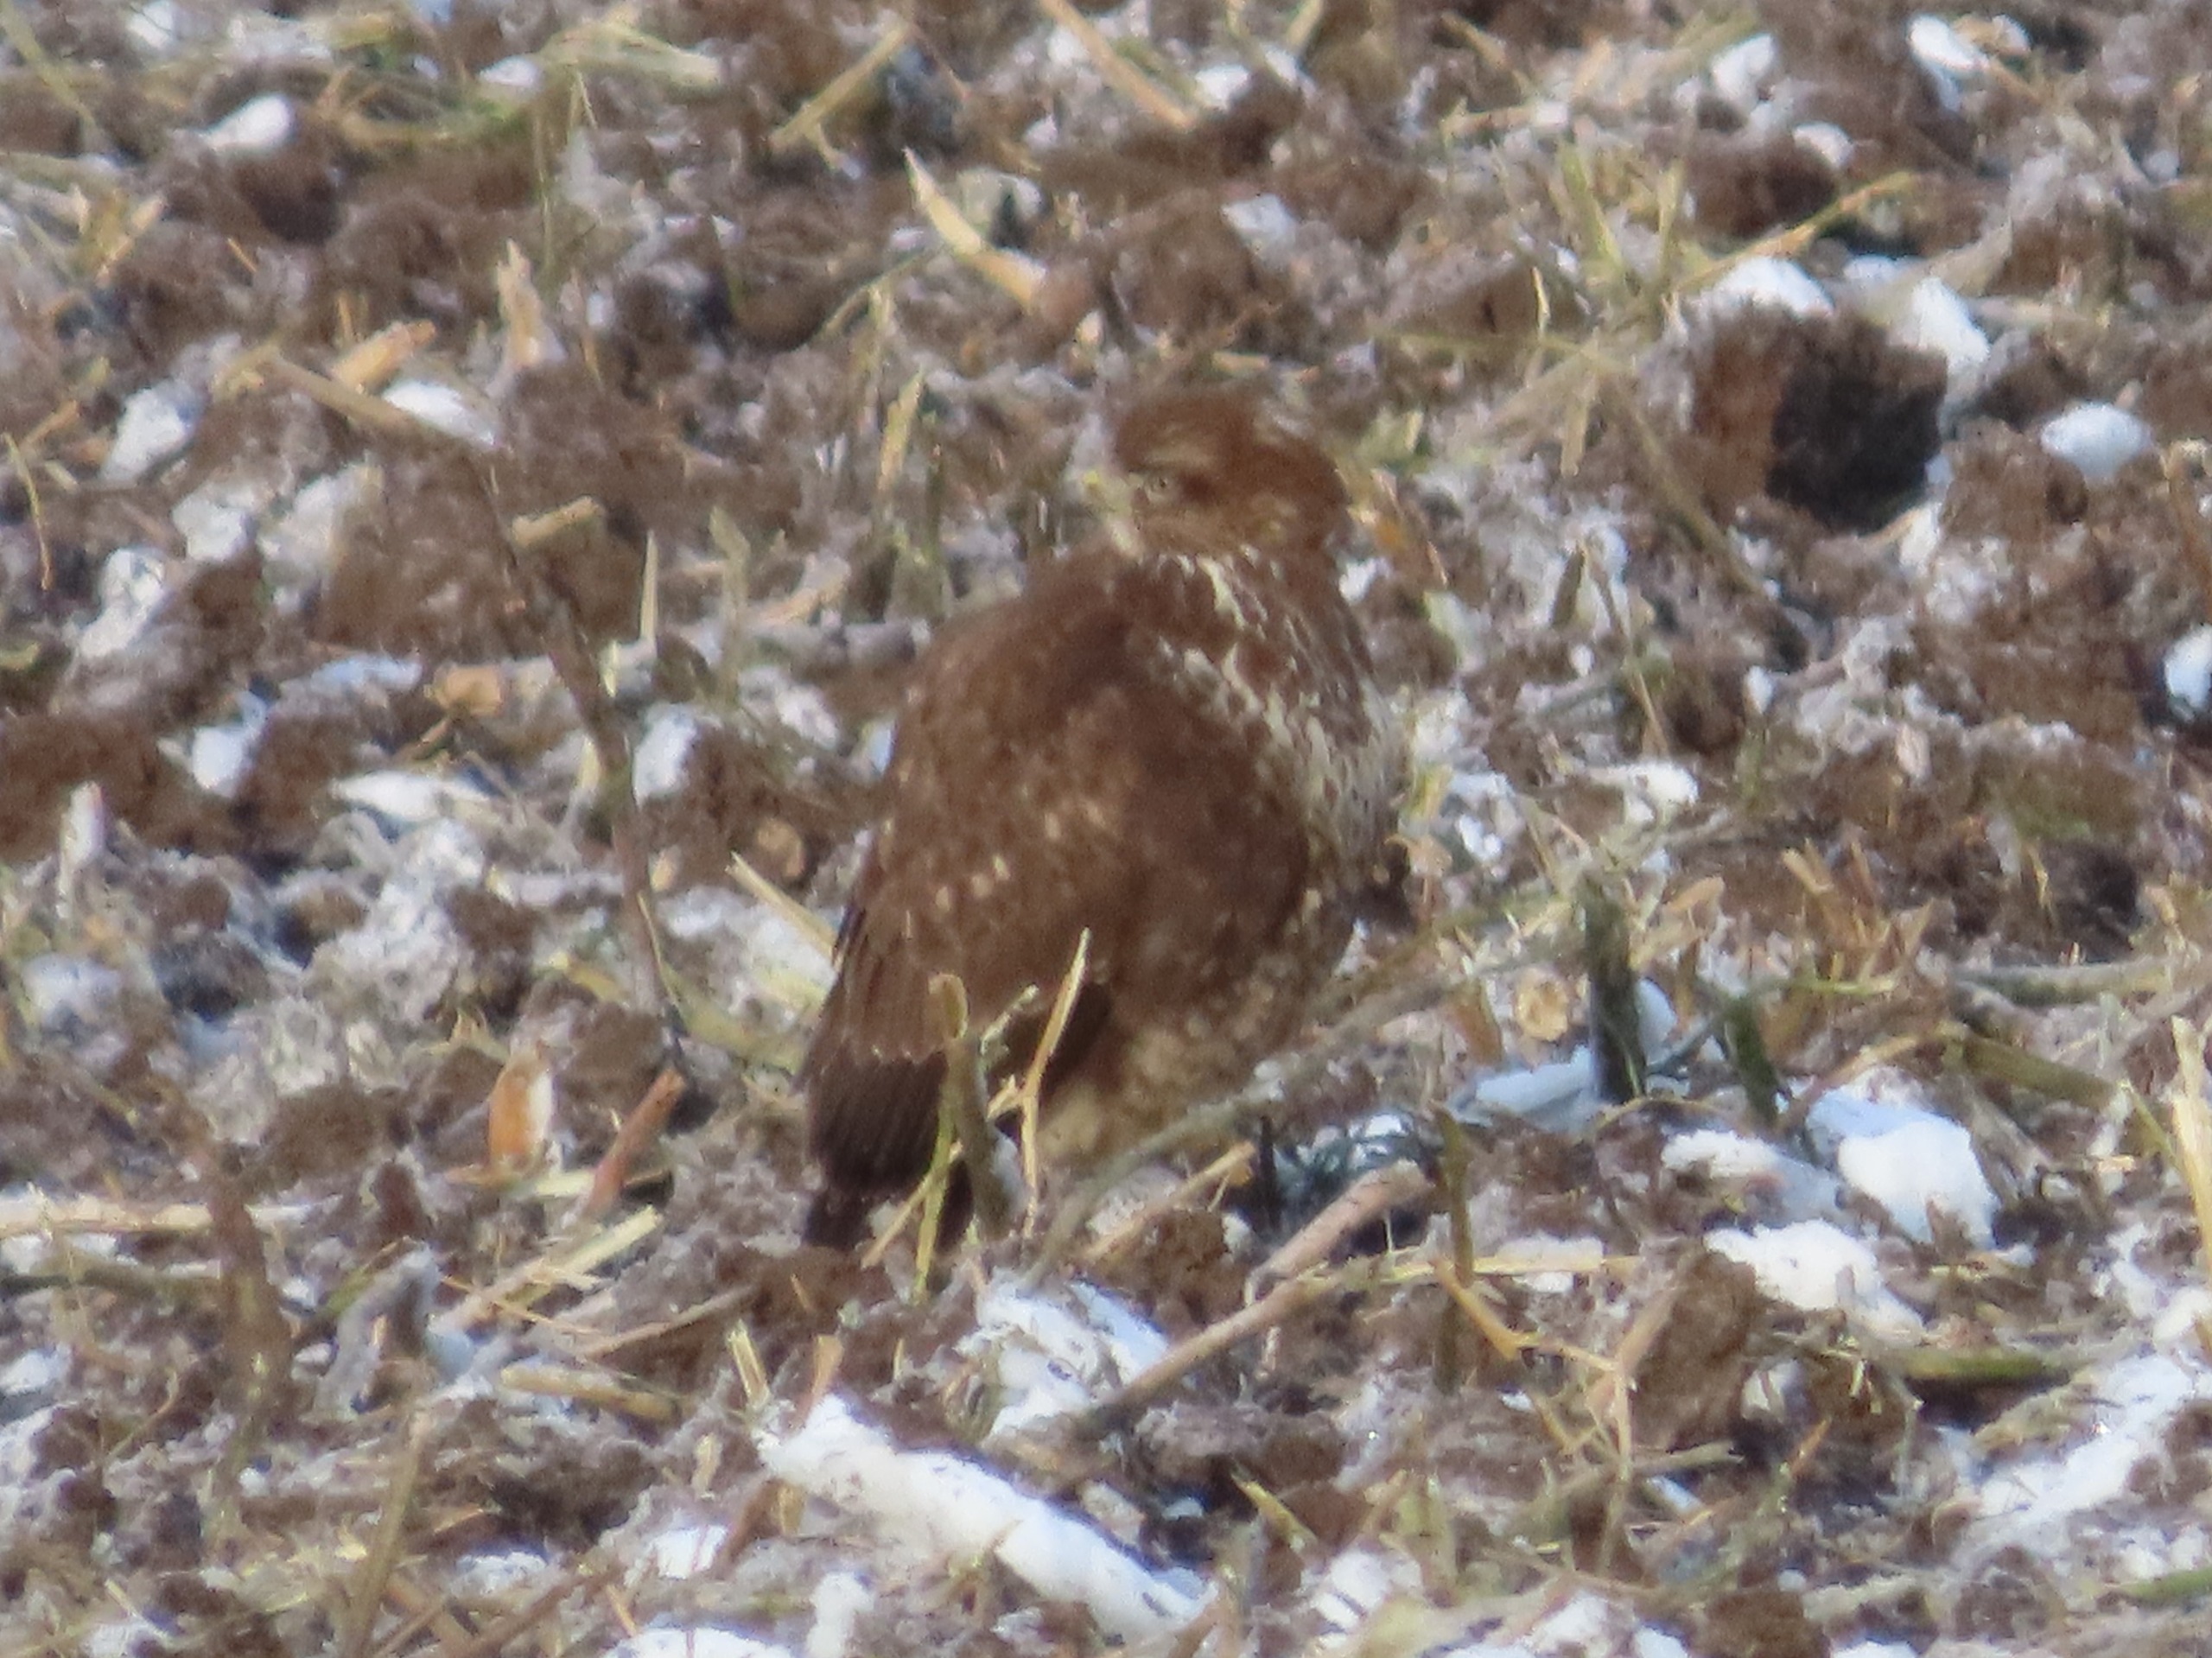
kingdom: Animalia
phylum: Chordata
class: Aves
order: Accipitriformes
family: Accipitridae
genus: Buteo
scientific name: Buteo buteo
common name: Musvåge
